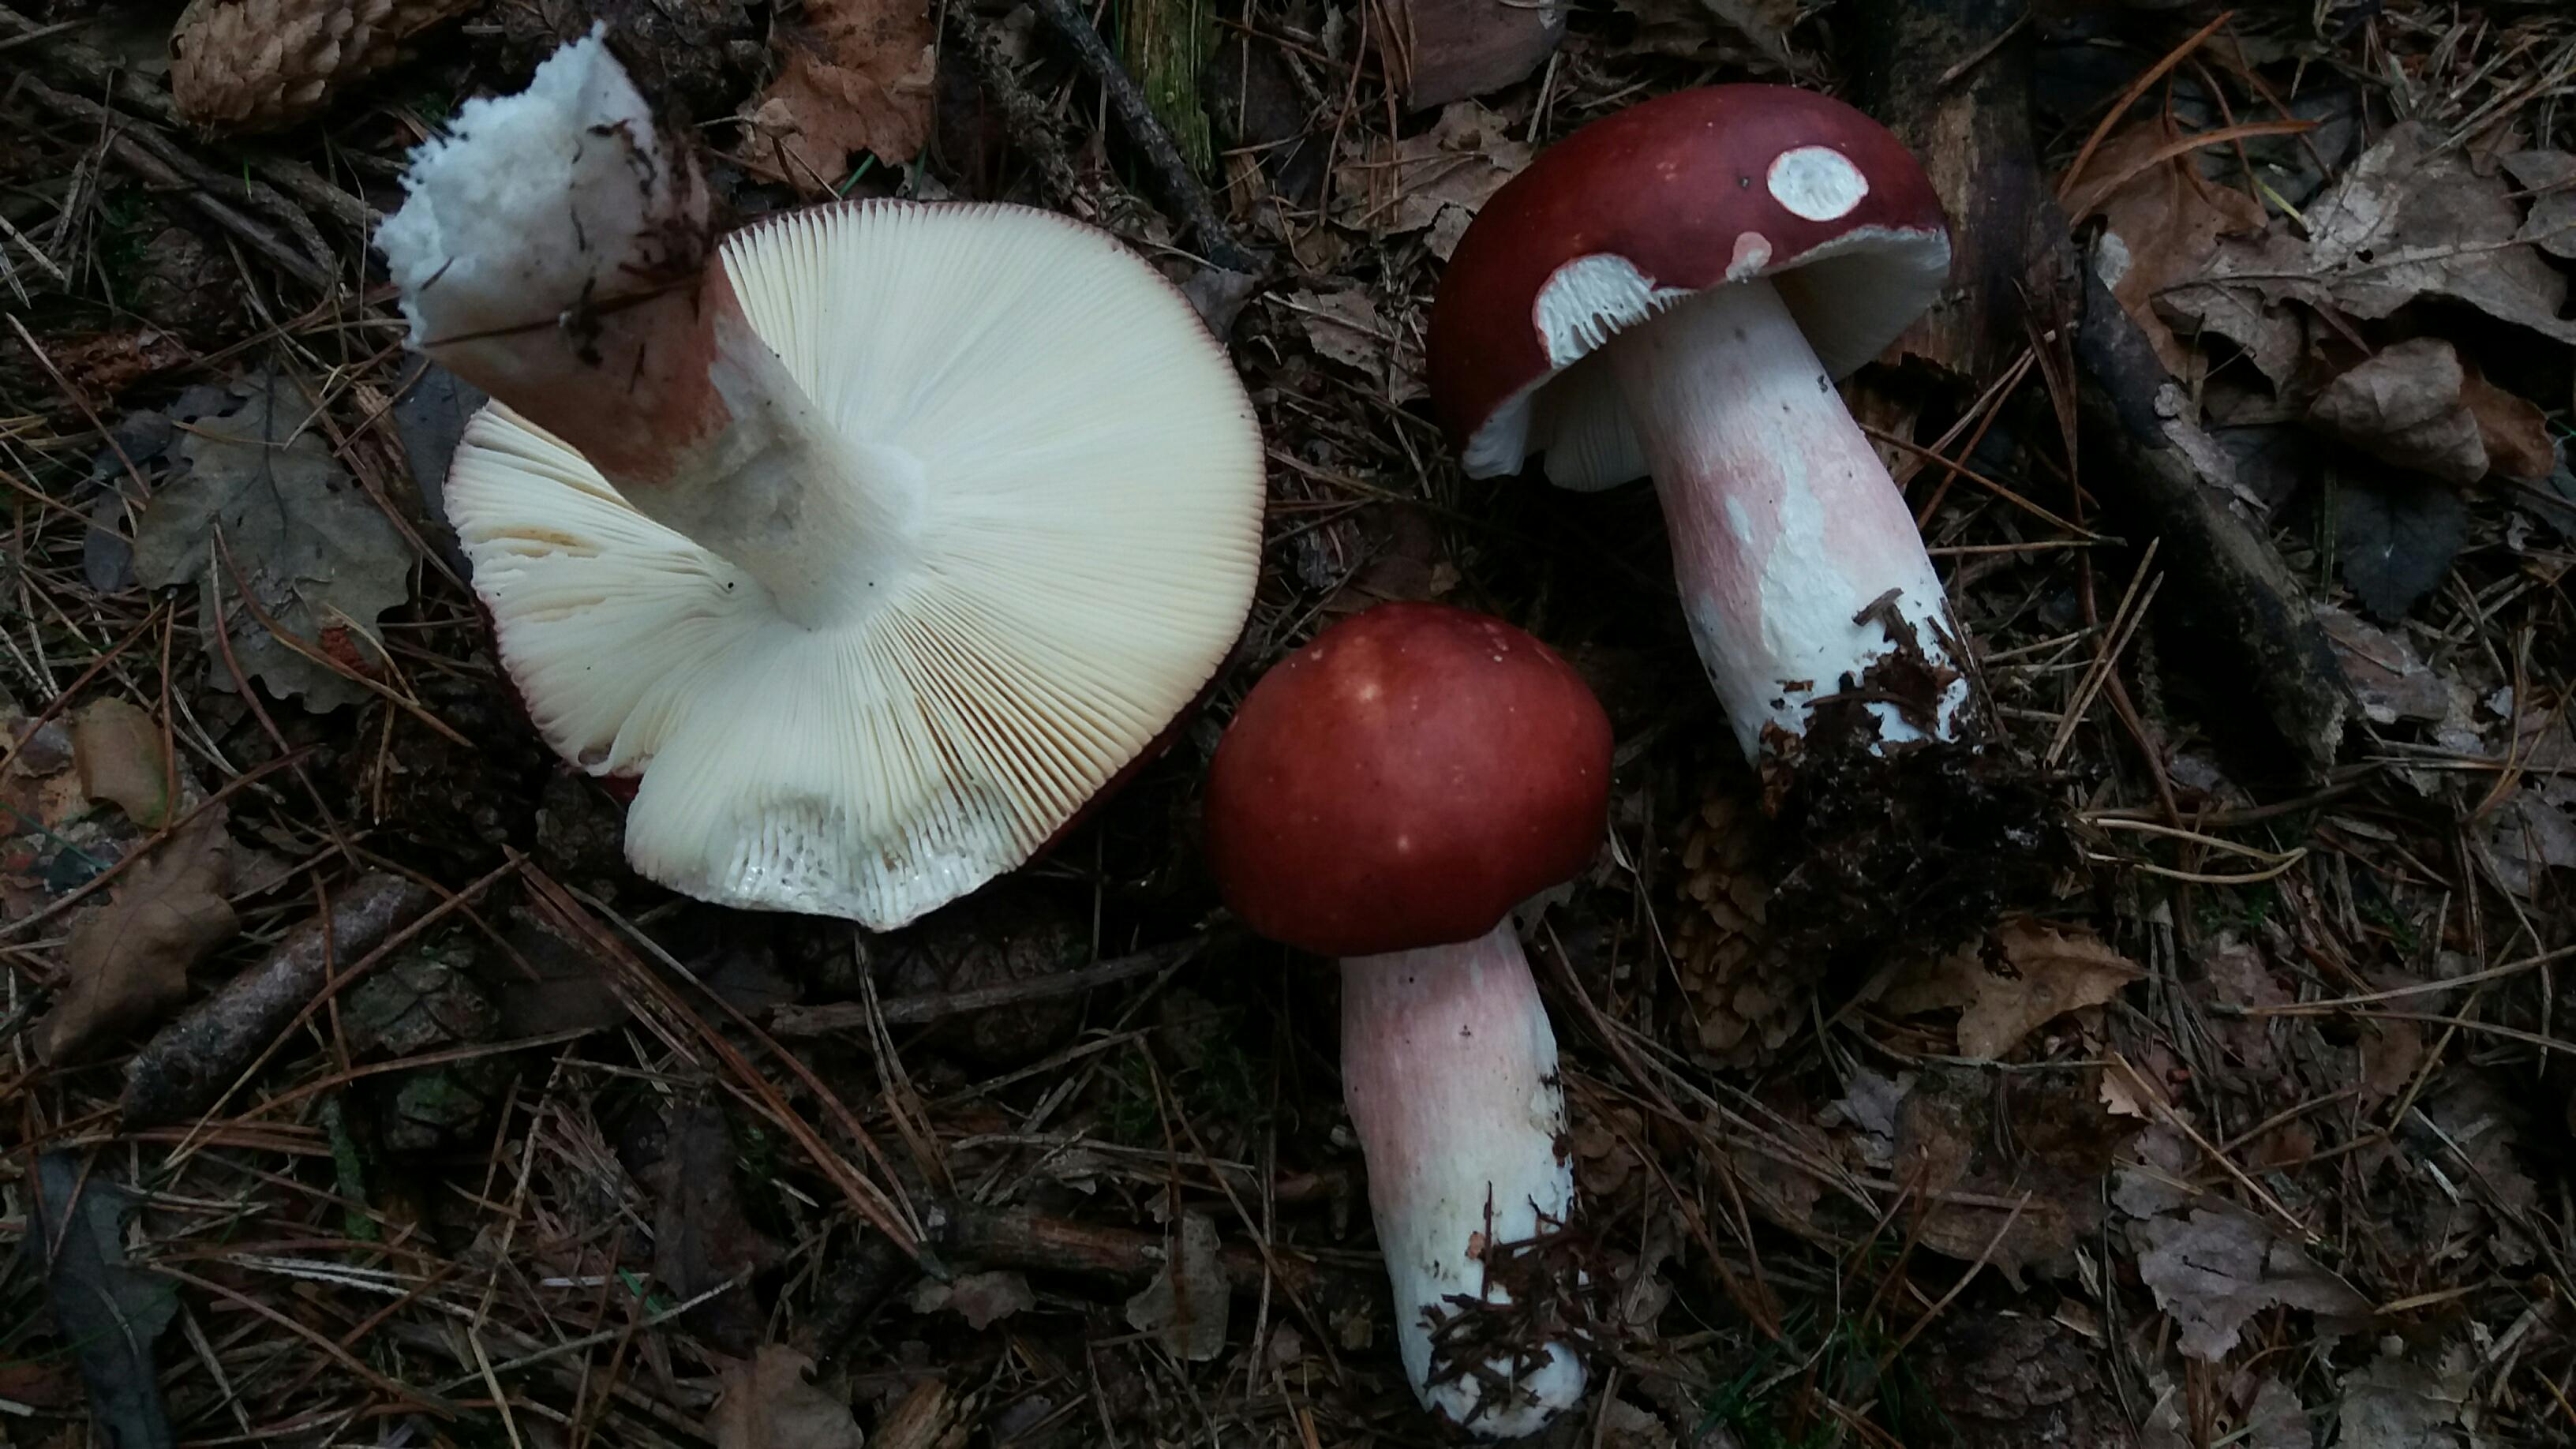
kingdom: Fungi
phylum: Basidiomycota
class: Agaricomycetes
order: Russulales
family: Russulaceae
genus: Russula
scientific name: Russula paludosa
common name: prægtig skørhat
